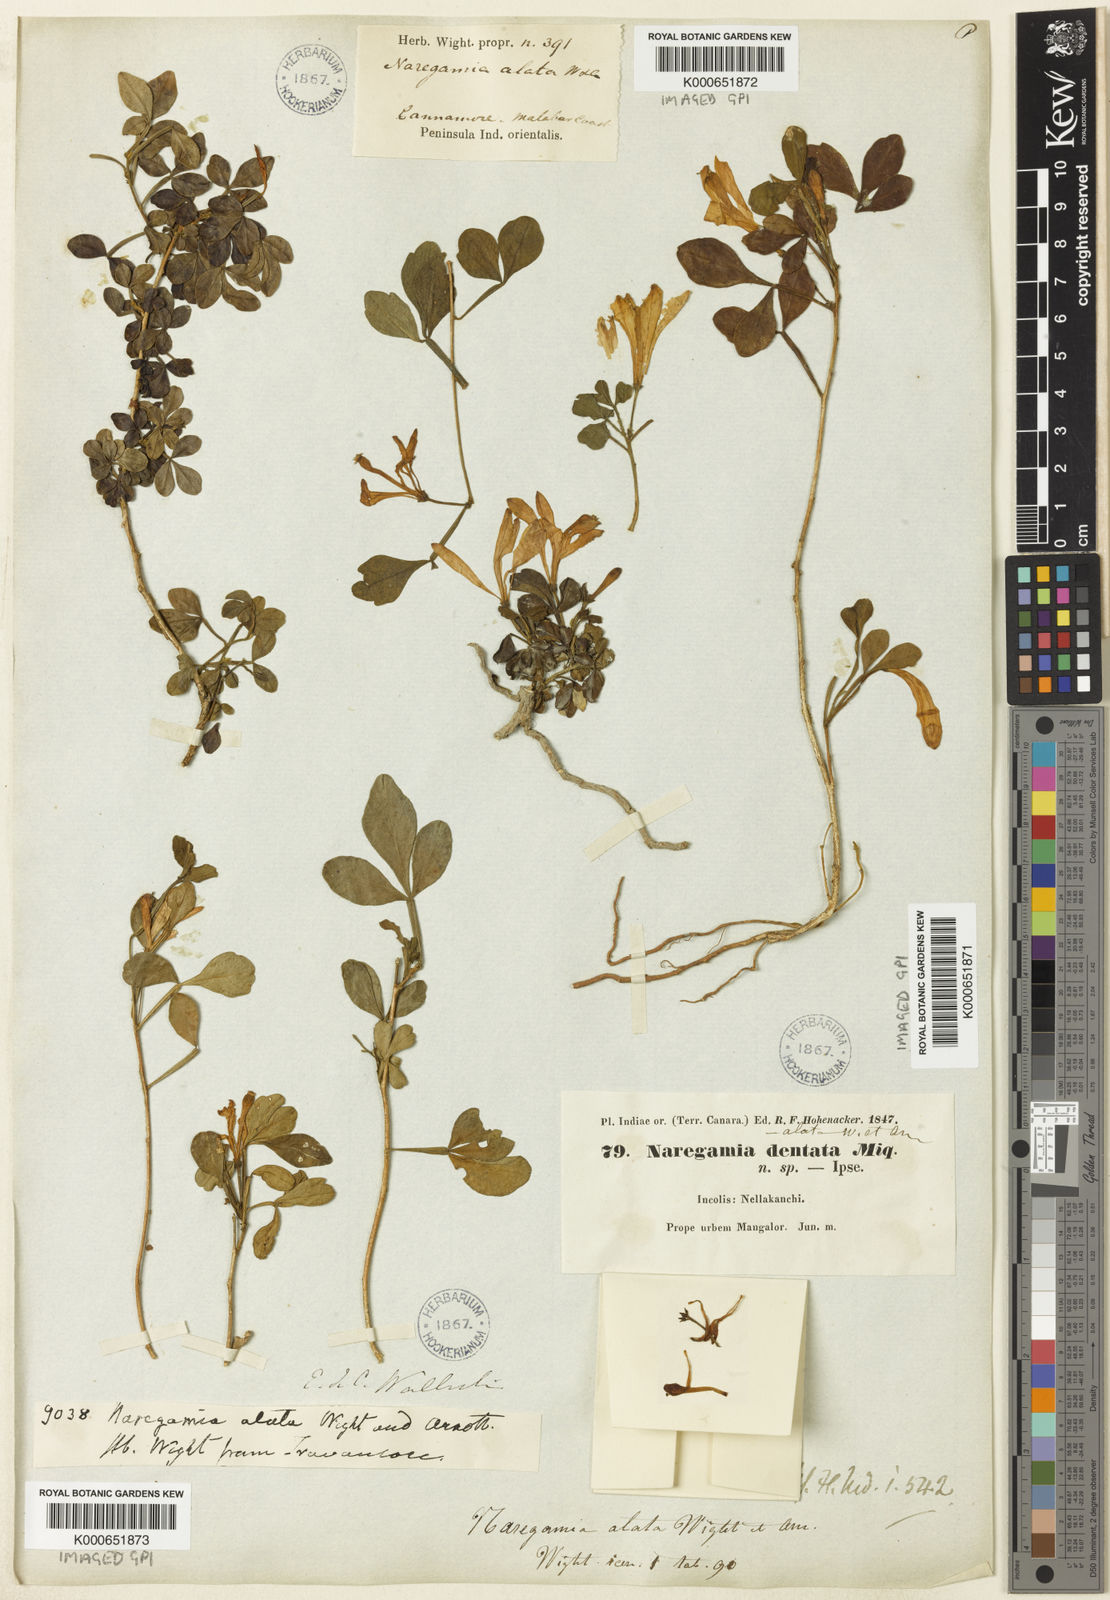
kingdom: Plantae
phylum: Tracheophyta
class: Magnoliopsida
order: Sapindales
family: Meliaceae
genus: Naregamia
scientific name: Naregamia alata
